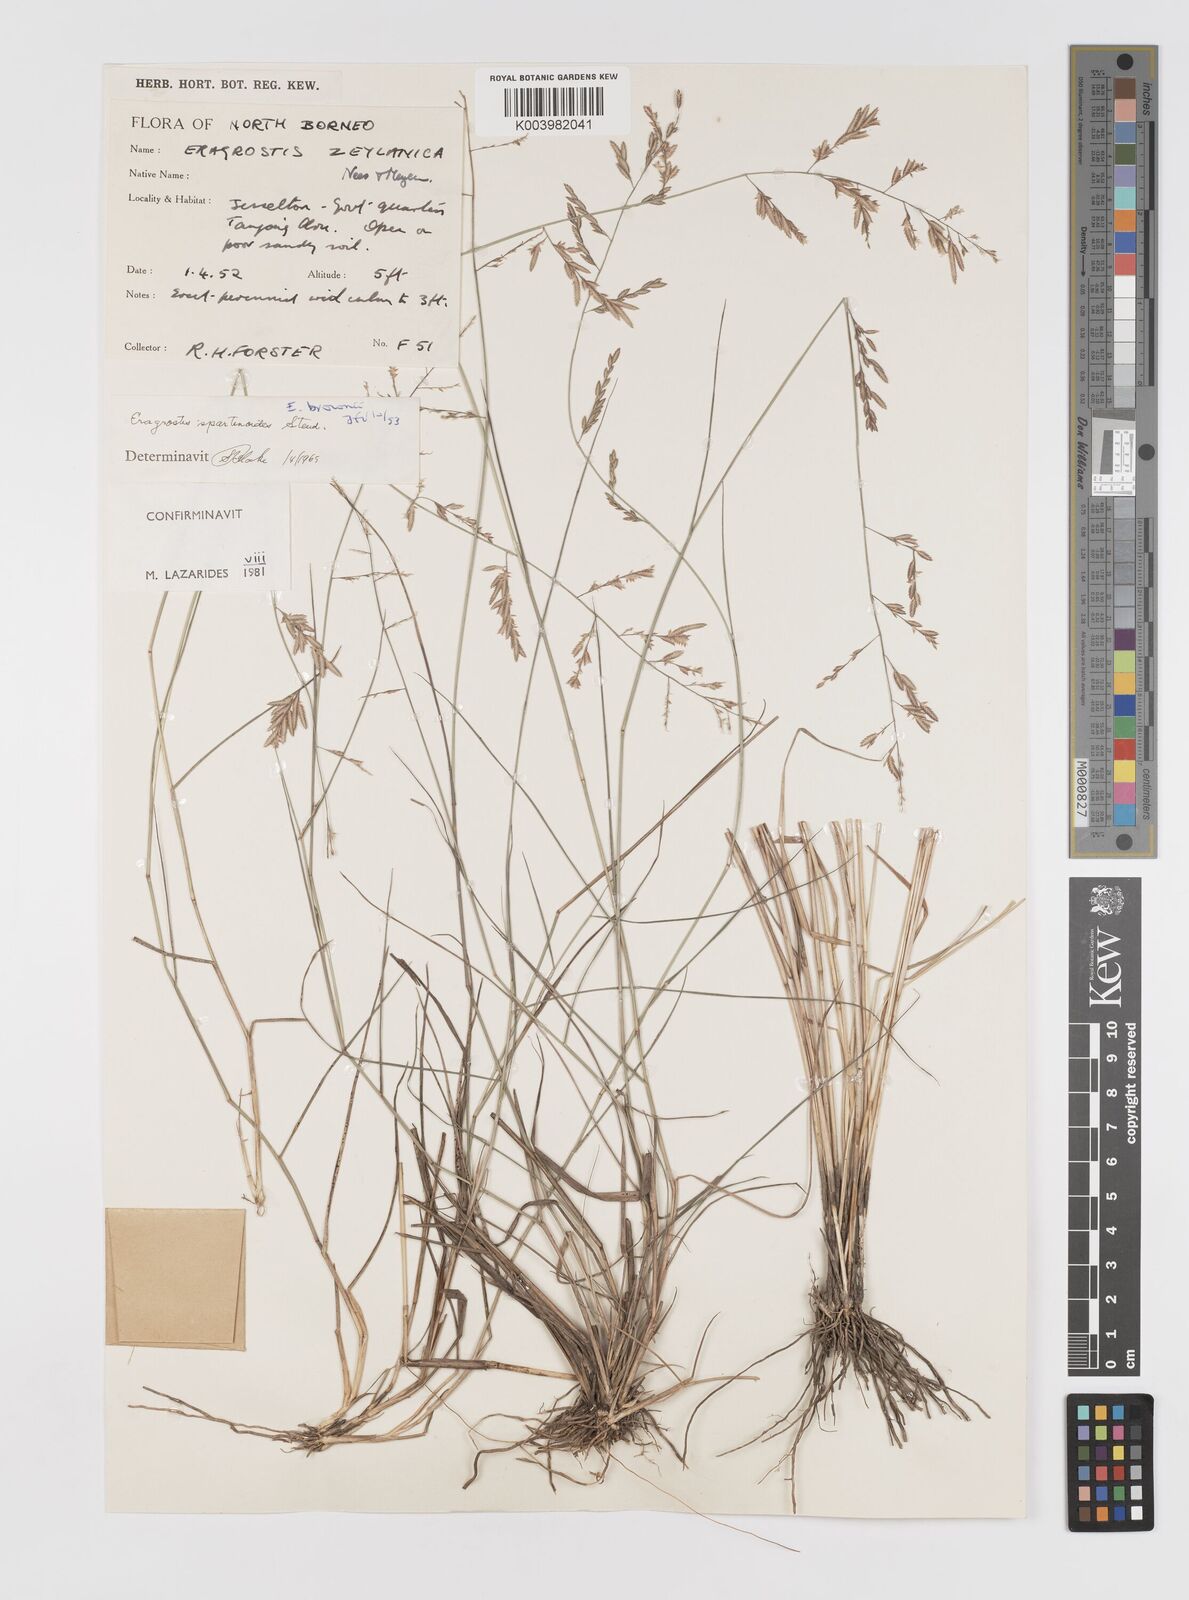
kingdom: Plantae
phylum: Tracheophyta
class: Liliopsida
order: Poales
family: Poaceae
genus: Eragrostis
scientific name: Eragrostis brownii
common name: Lovegrass
